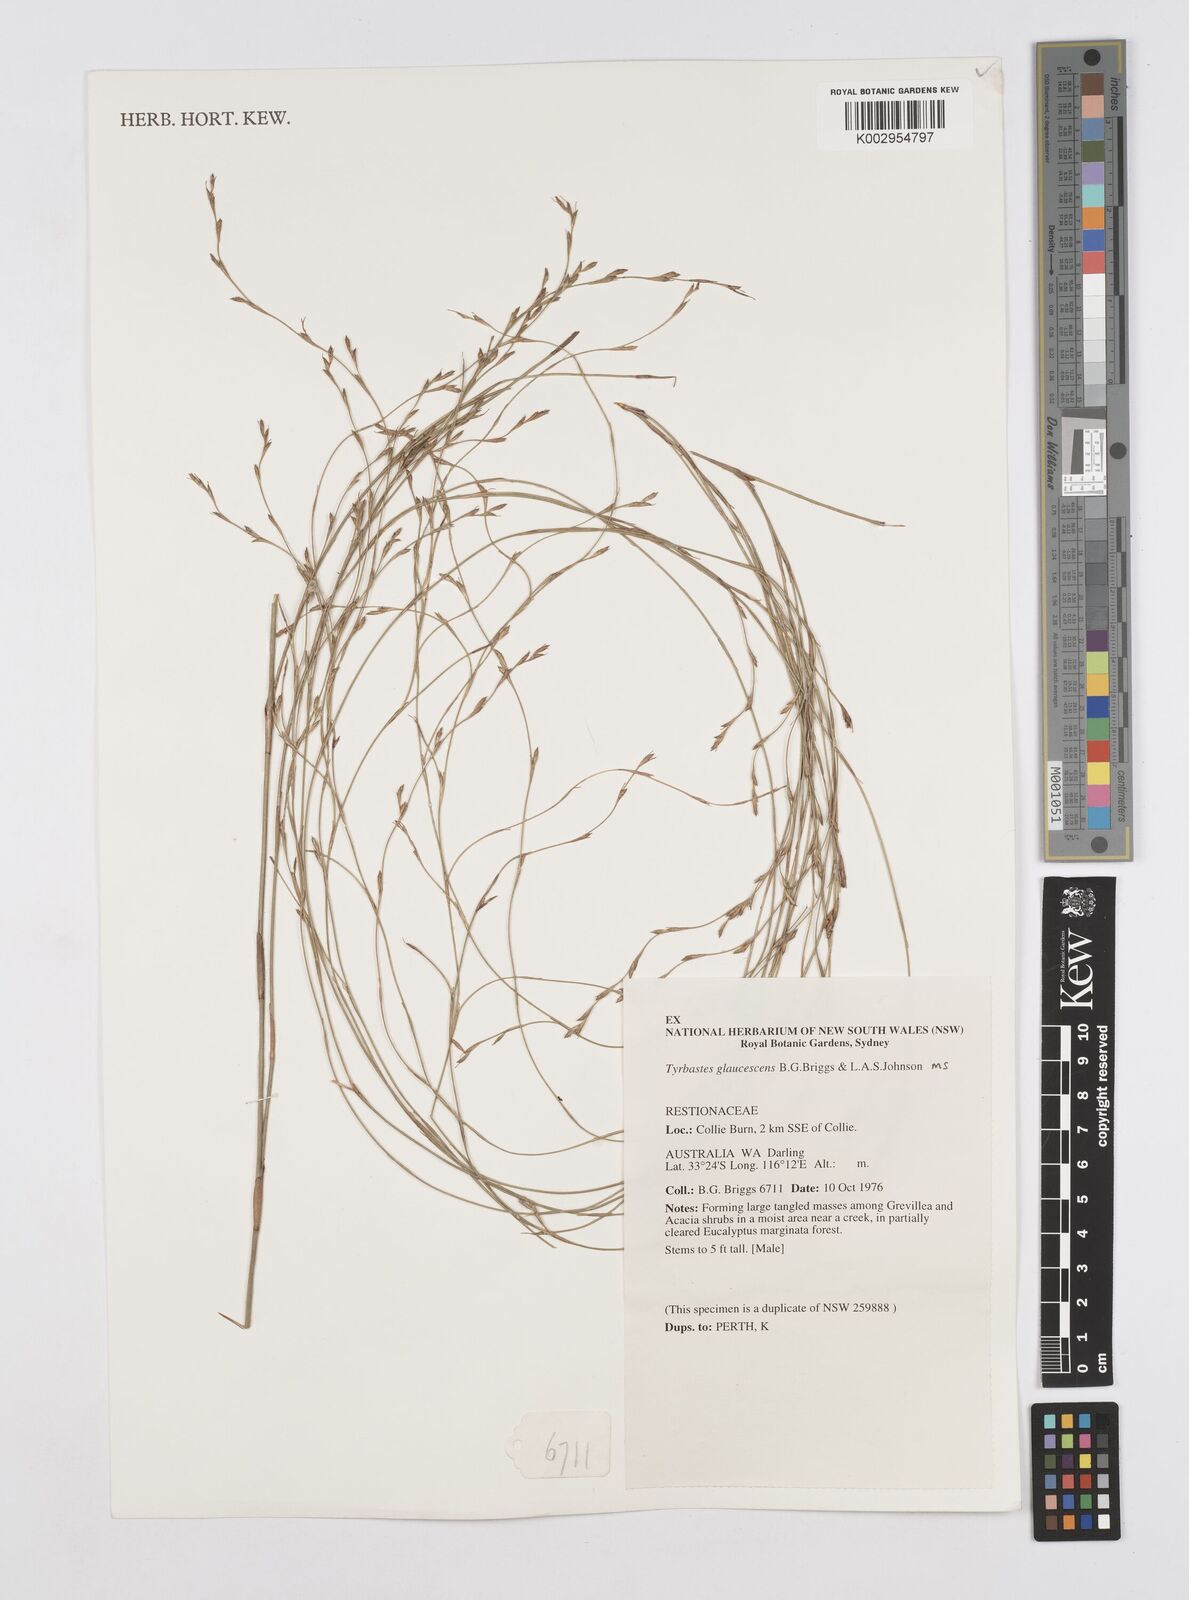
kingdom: Plantae
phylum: Tracheophyta
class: Liliopsida
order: Poales
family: Restionaceae
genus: Tyrbastes
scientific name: Tyrbastes glaucescens
